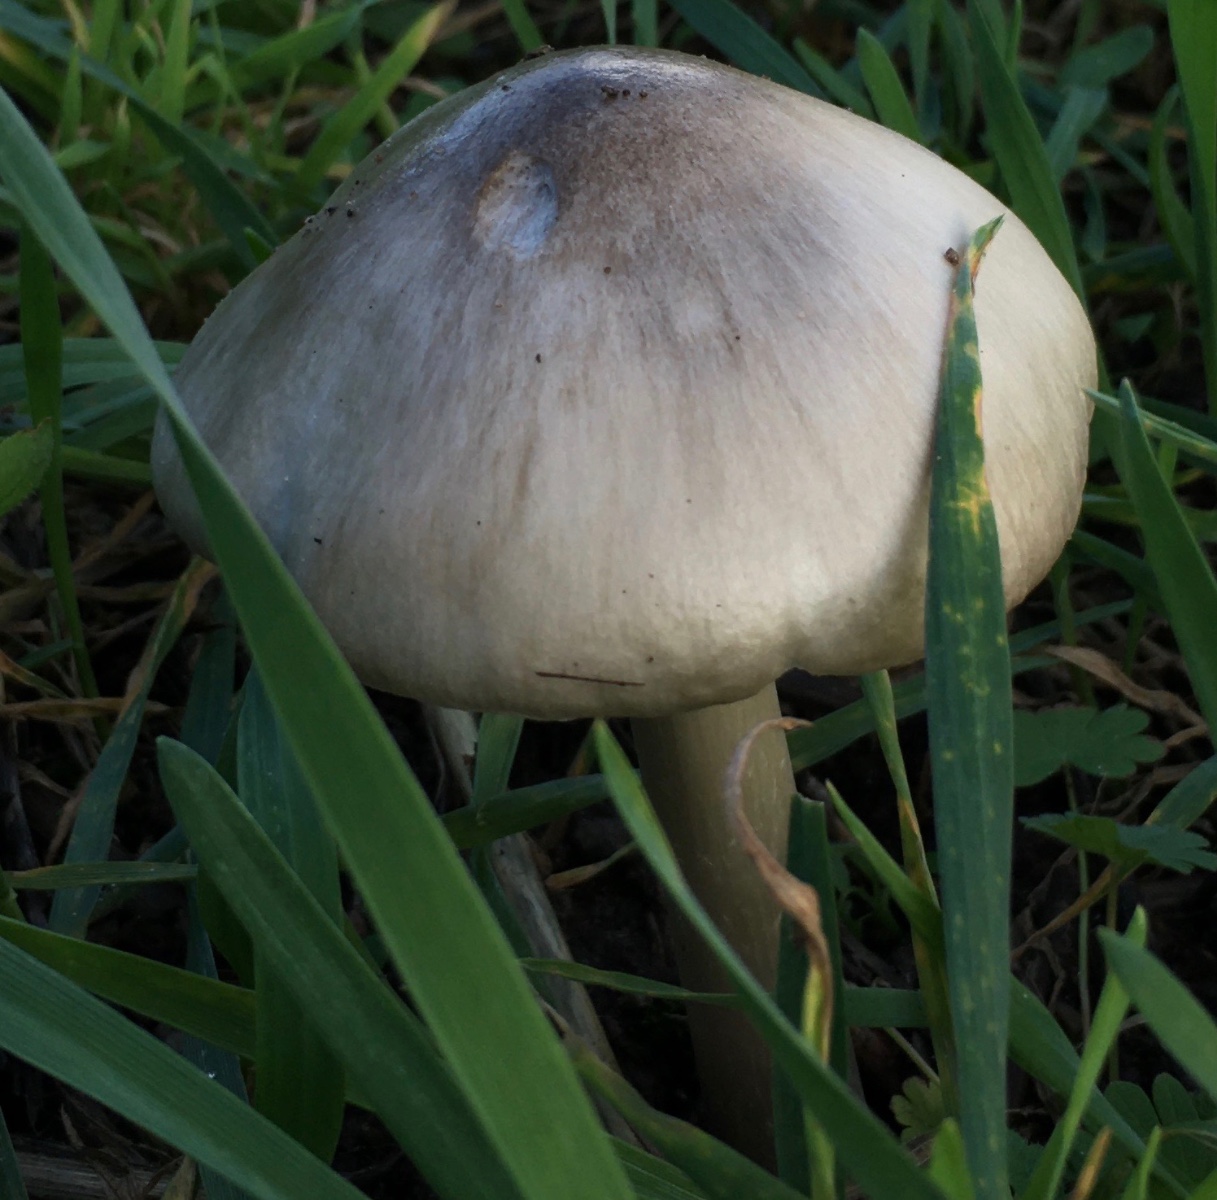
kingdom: Fungi
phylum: Basidiomycota
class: Agaricomycetes
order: Agaricales
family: Pluteaceae
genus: Volvopluteus
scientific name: Volvopluteus gloiocephalus
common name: høj posesvamp
